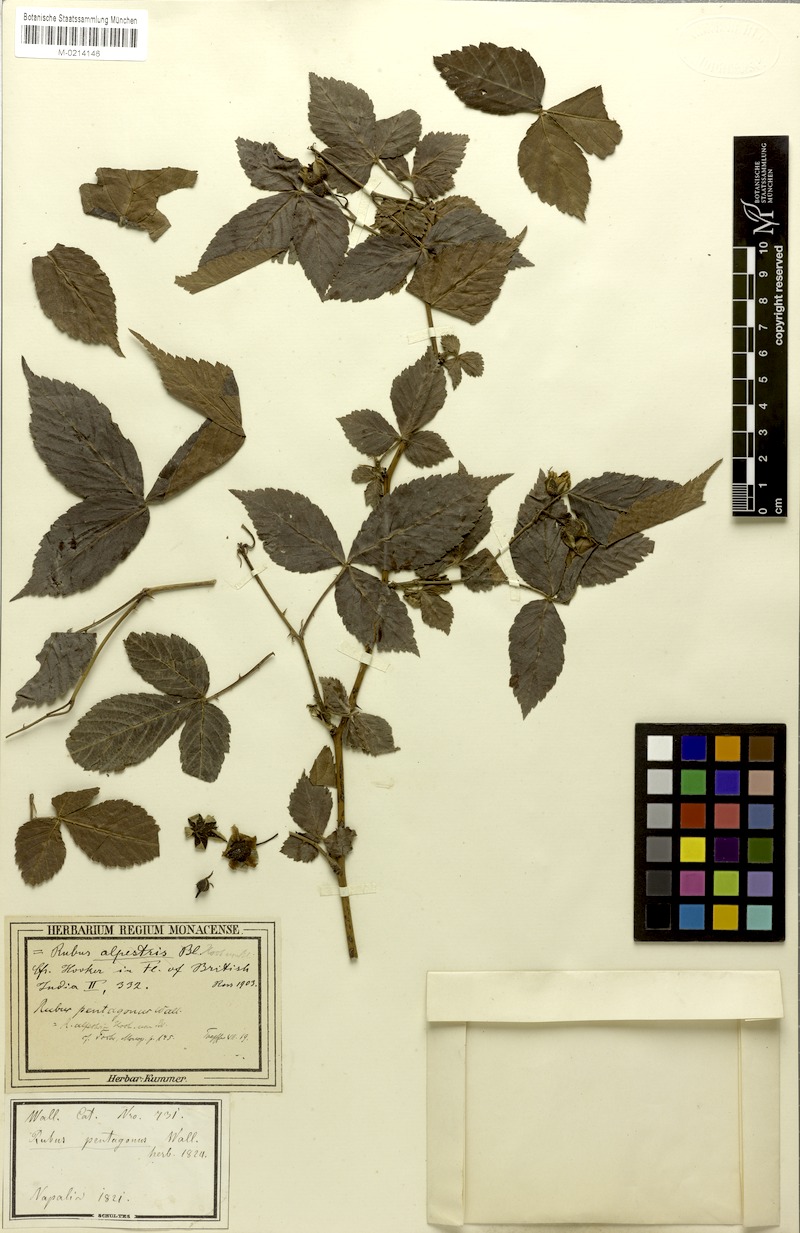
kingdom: Plantae
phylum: Tracheophyta
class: Magnoliopsida
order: Rosales
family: Rosaceae
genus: Rubus
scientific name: Rubus pentagonus
